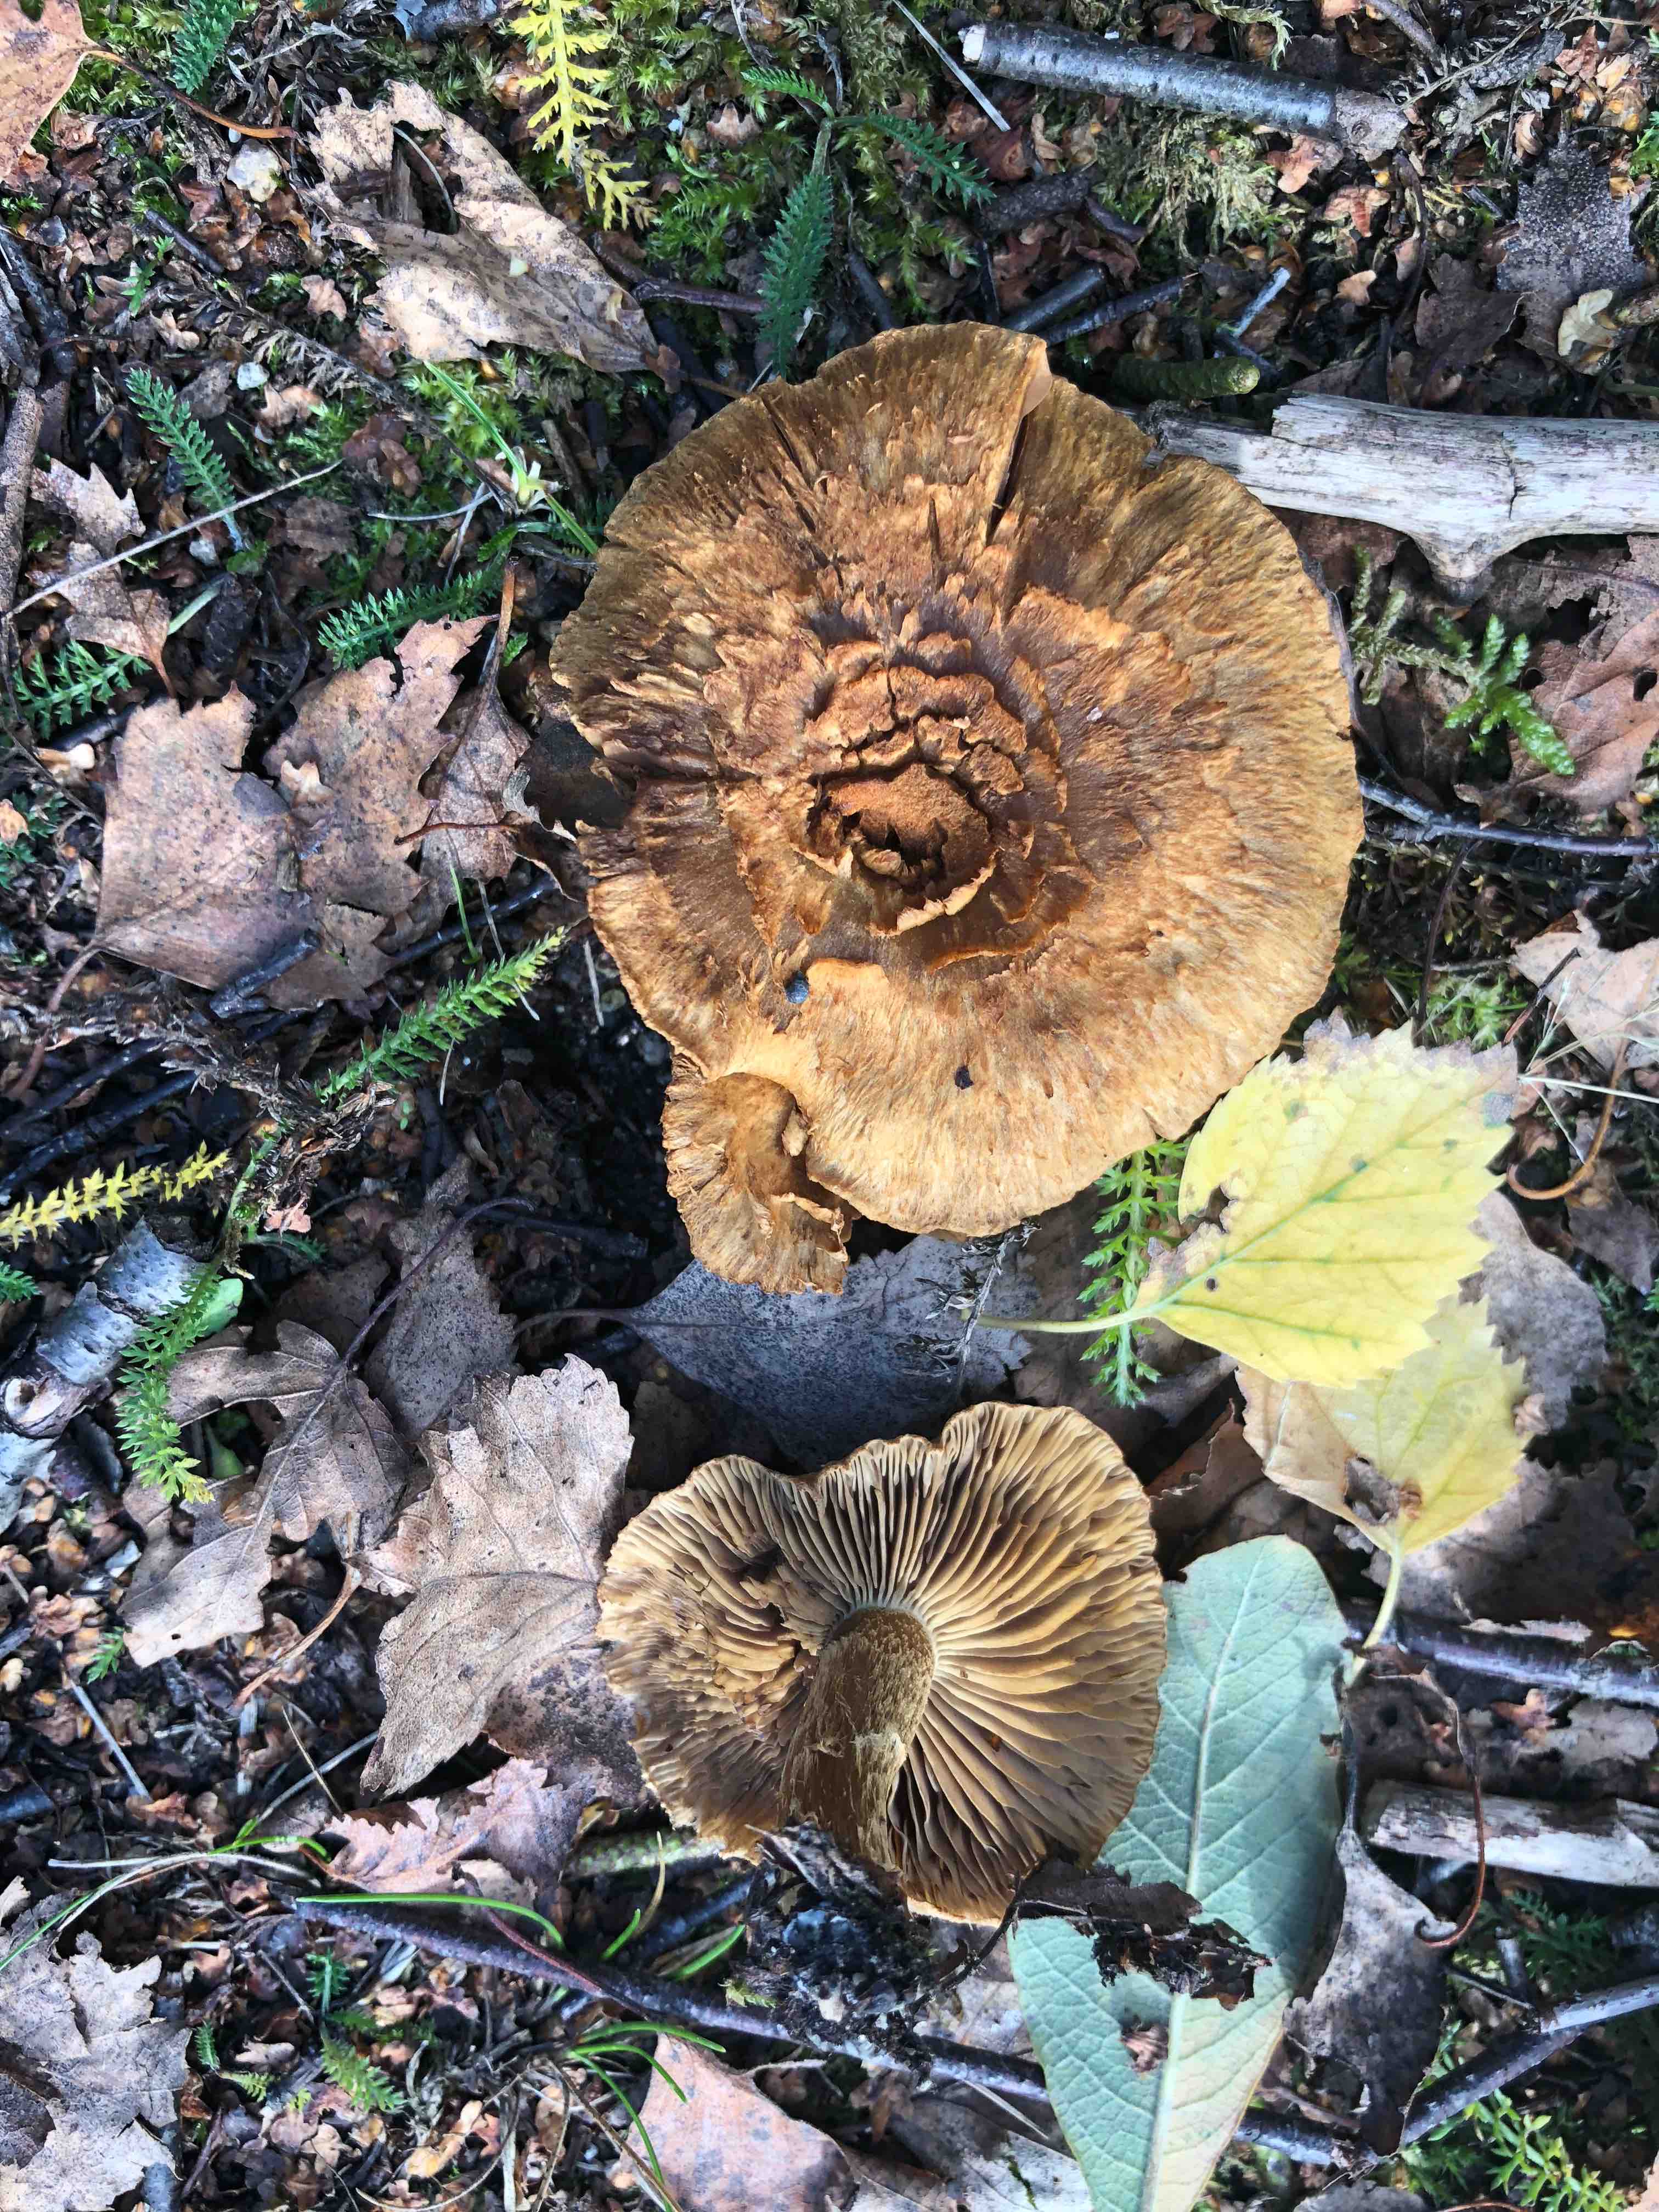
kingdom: Fungi
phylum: Basidiomycota
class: Agaricomycetes
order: Agaricales
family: Inocybaceae
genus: Mallocybe
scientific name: Mallocybe
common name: Trævlhat
